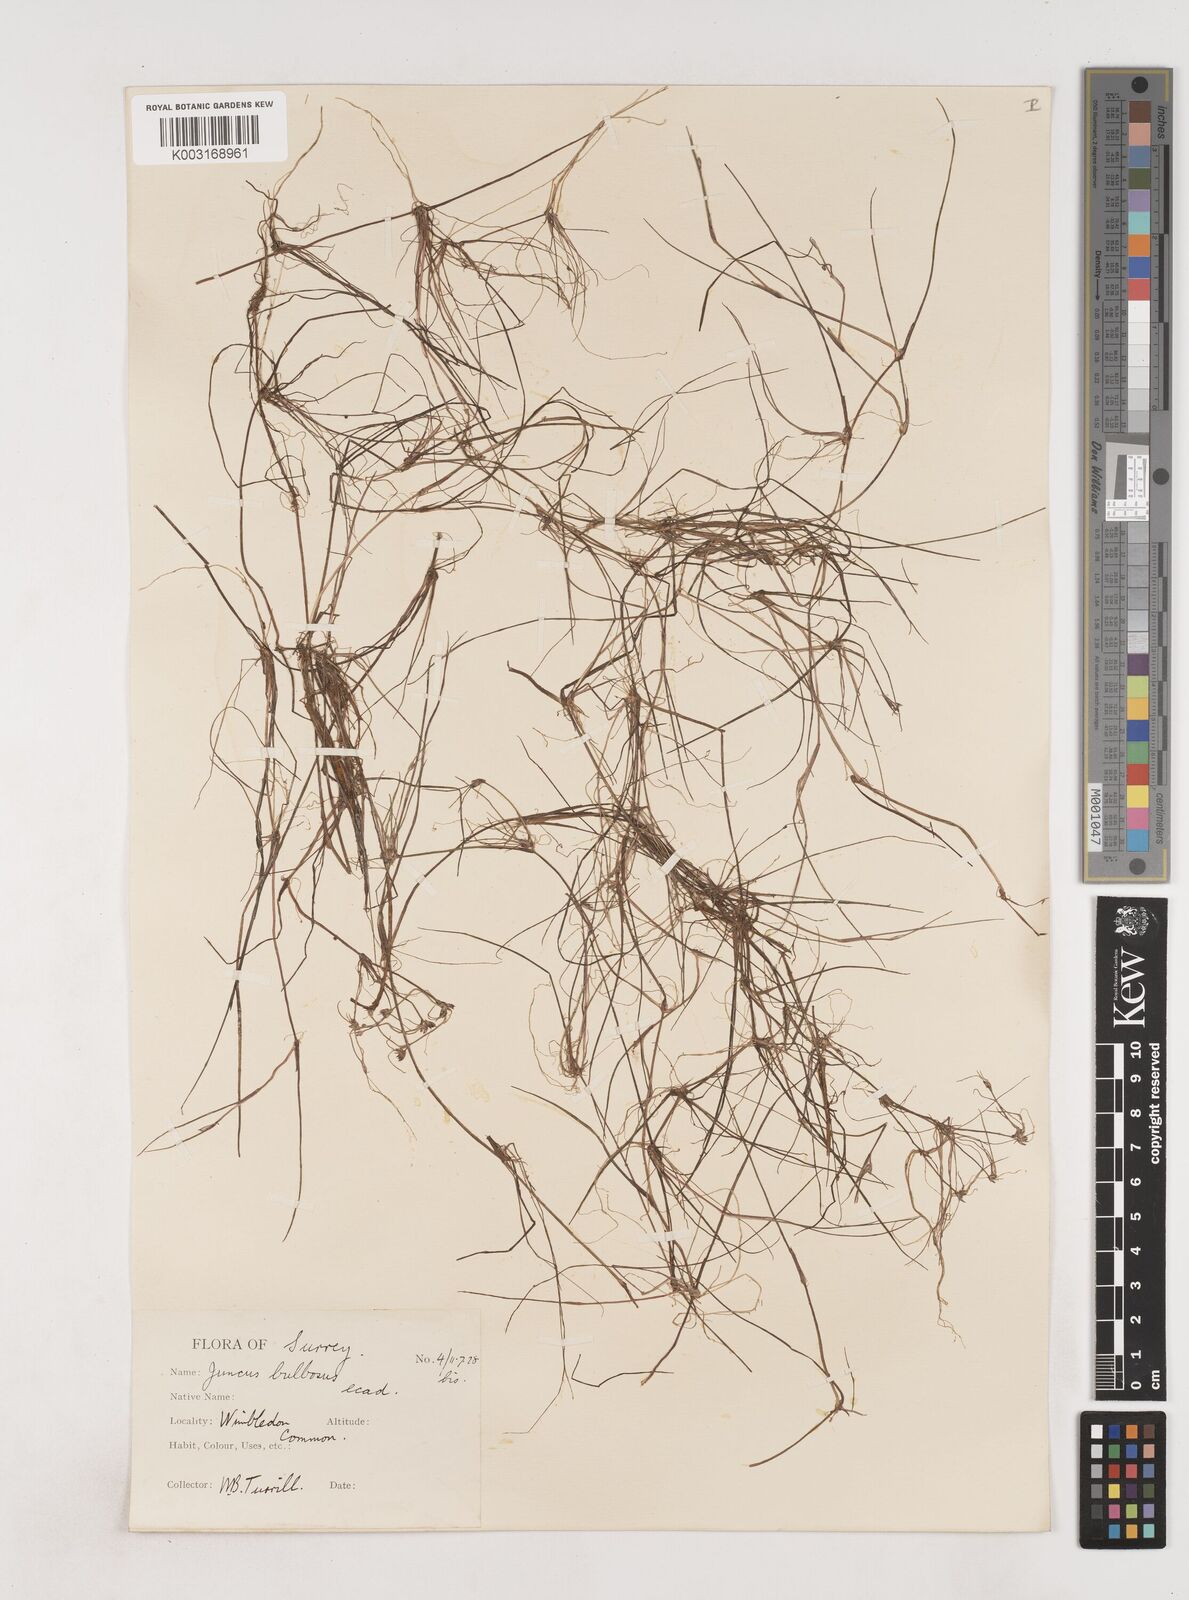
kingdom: Plantae
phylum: Tracheophyta
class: Liliopsida
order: Poales
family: Juncaceae
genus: Juncus
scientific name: Juncus bulbosus
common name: Bulbous rush
